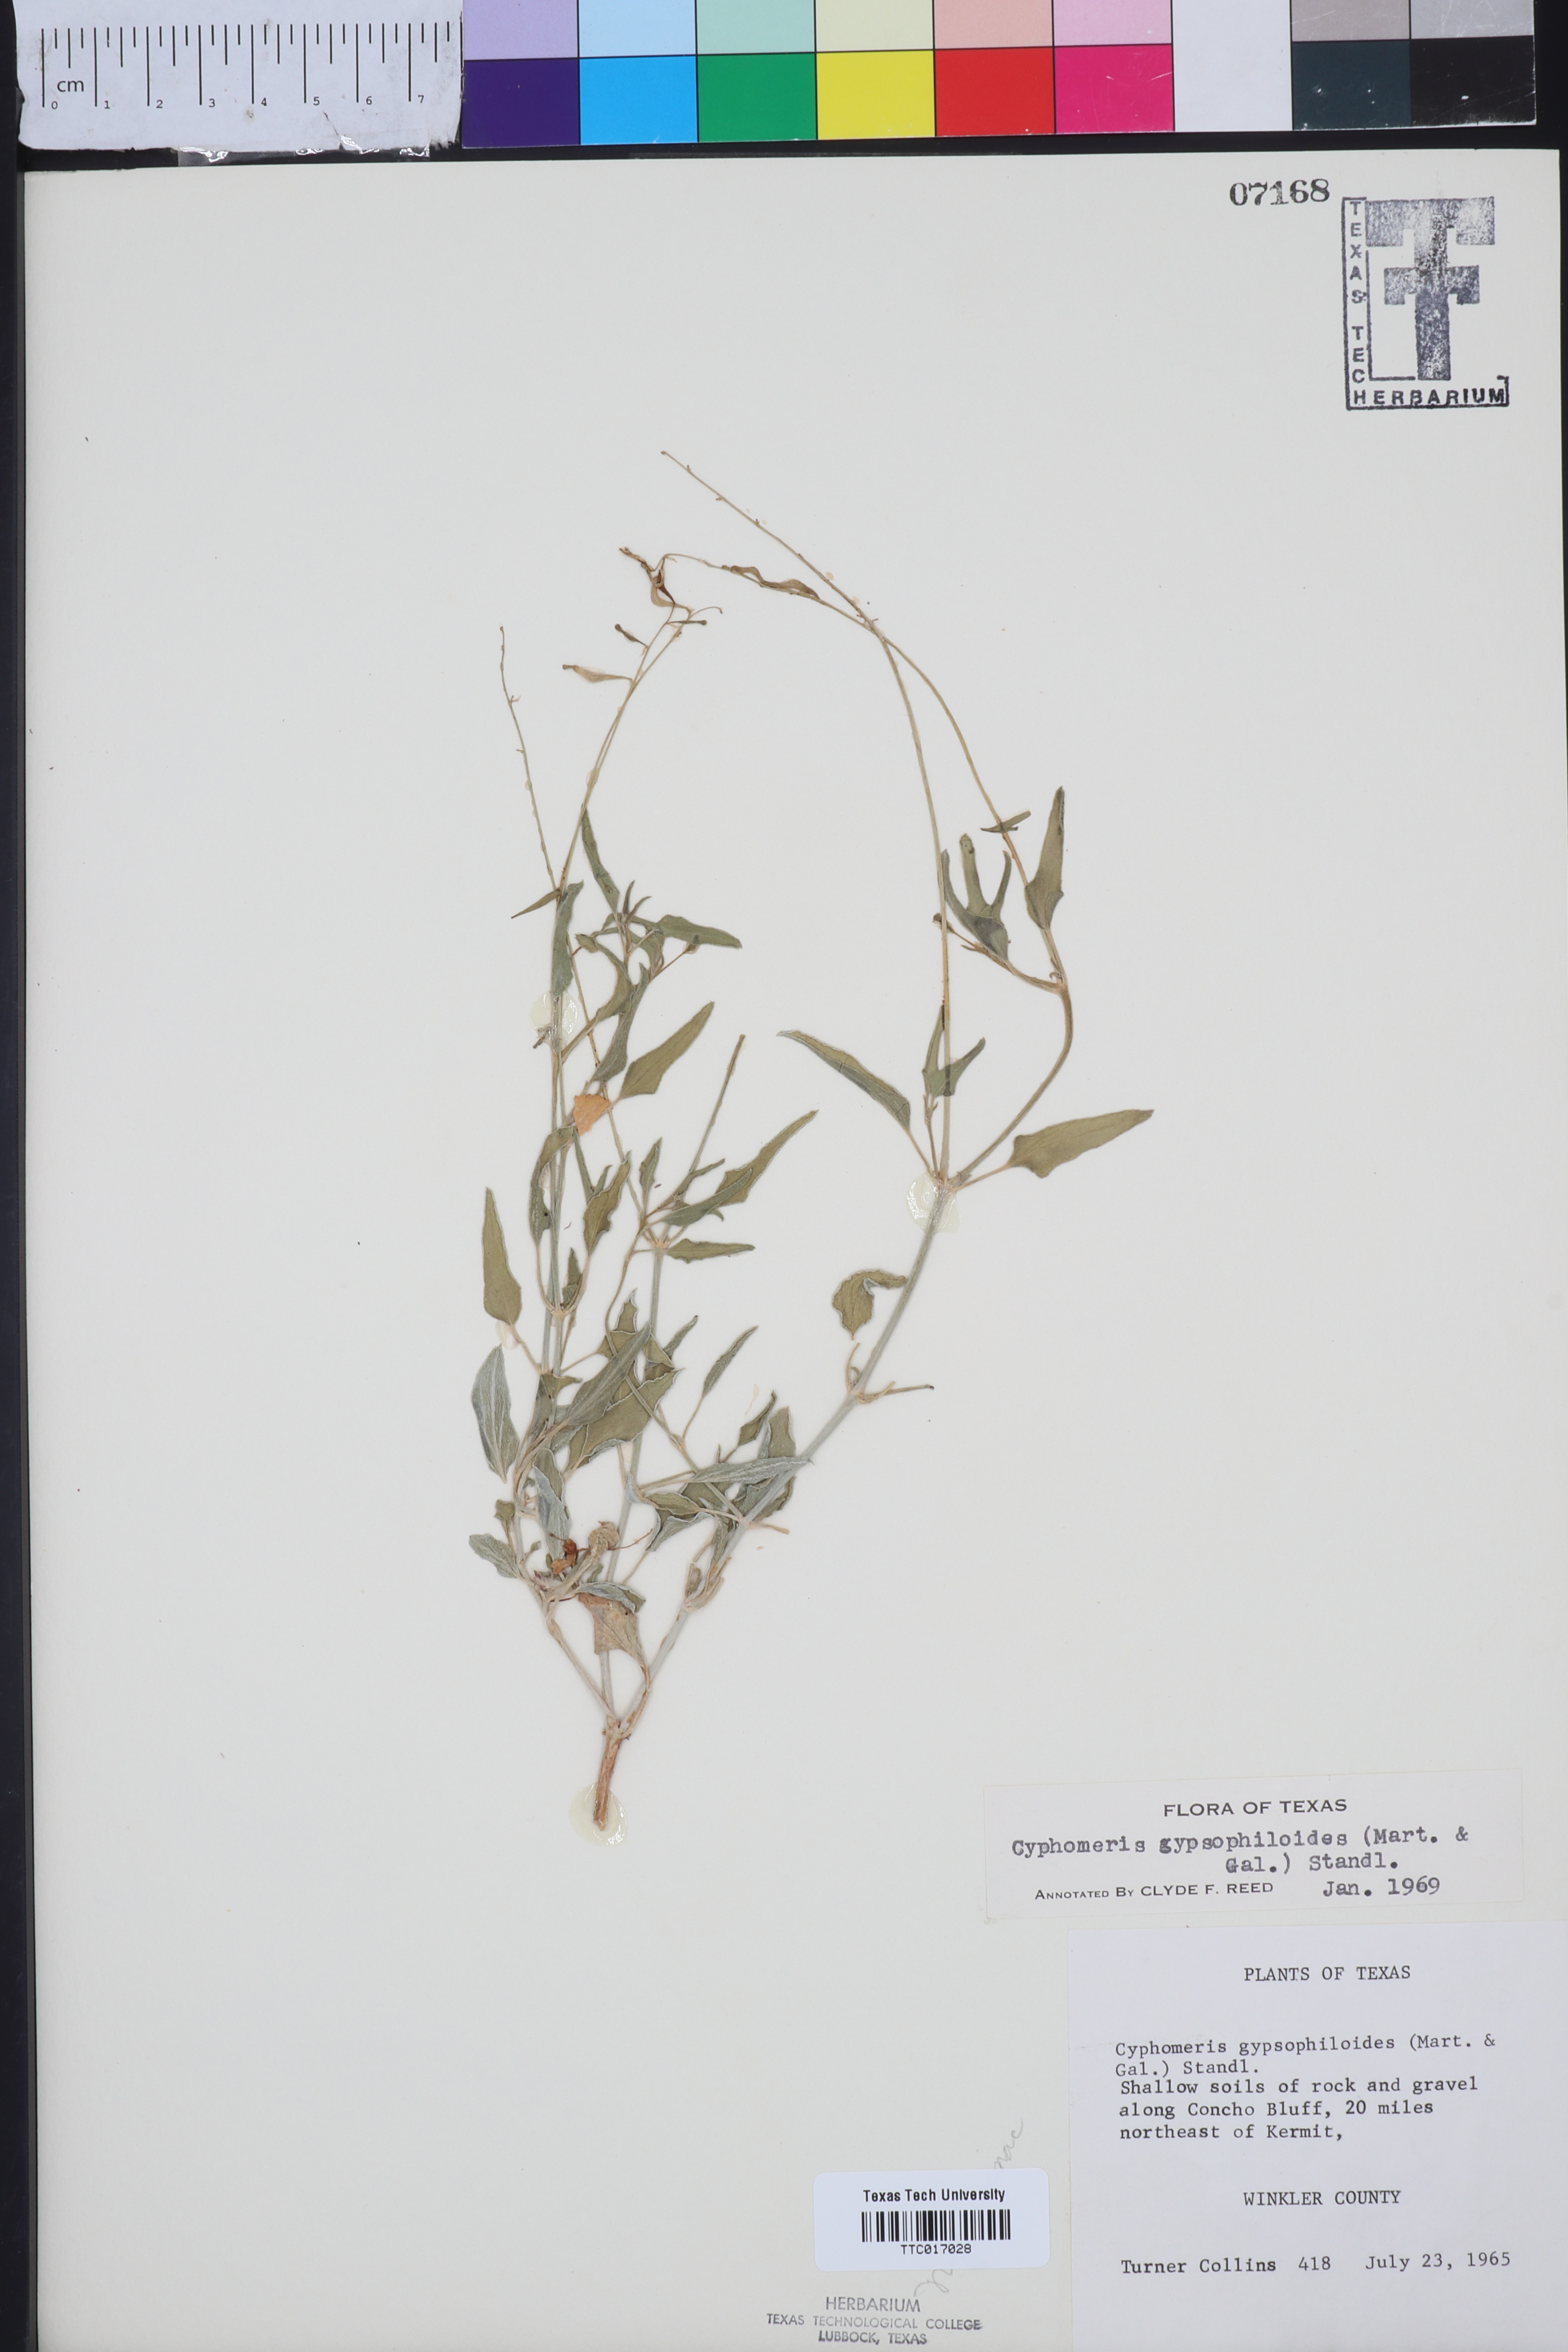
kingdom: Plantae
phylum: Tracheophyta
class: Magnoliopsida
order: Caryophyllales
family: Nyctaginaceae
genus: Cyphomeris
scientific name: Cyphomeris gypsophiloides
